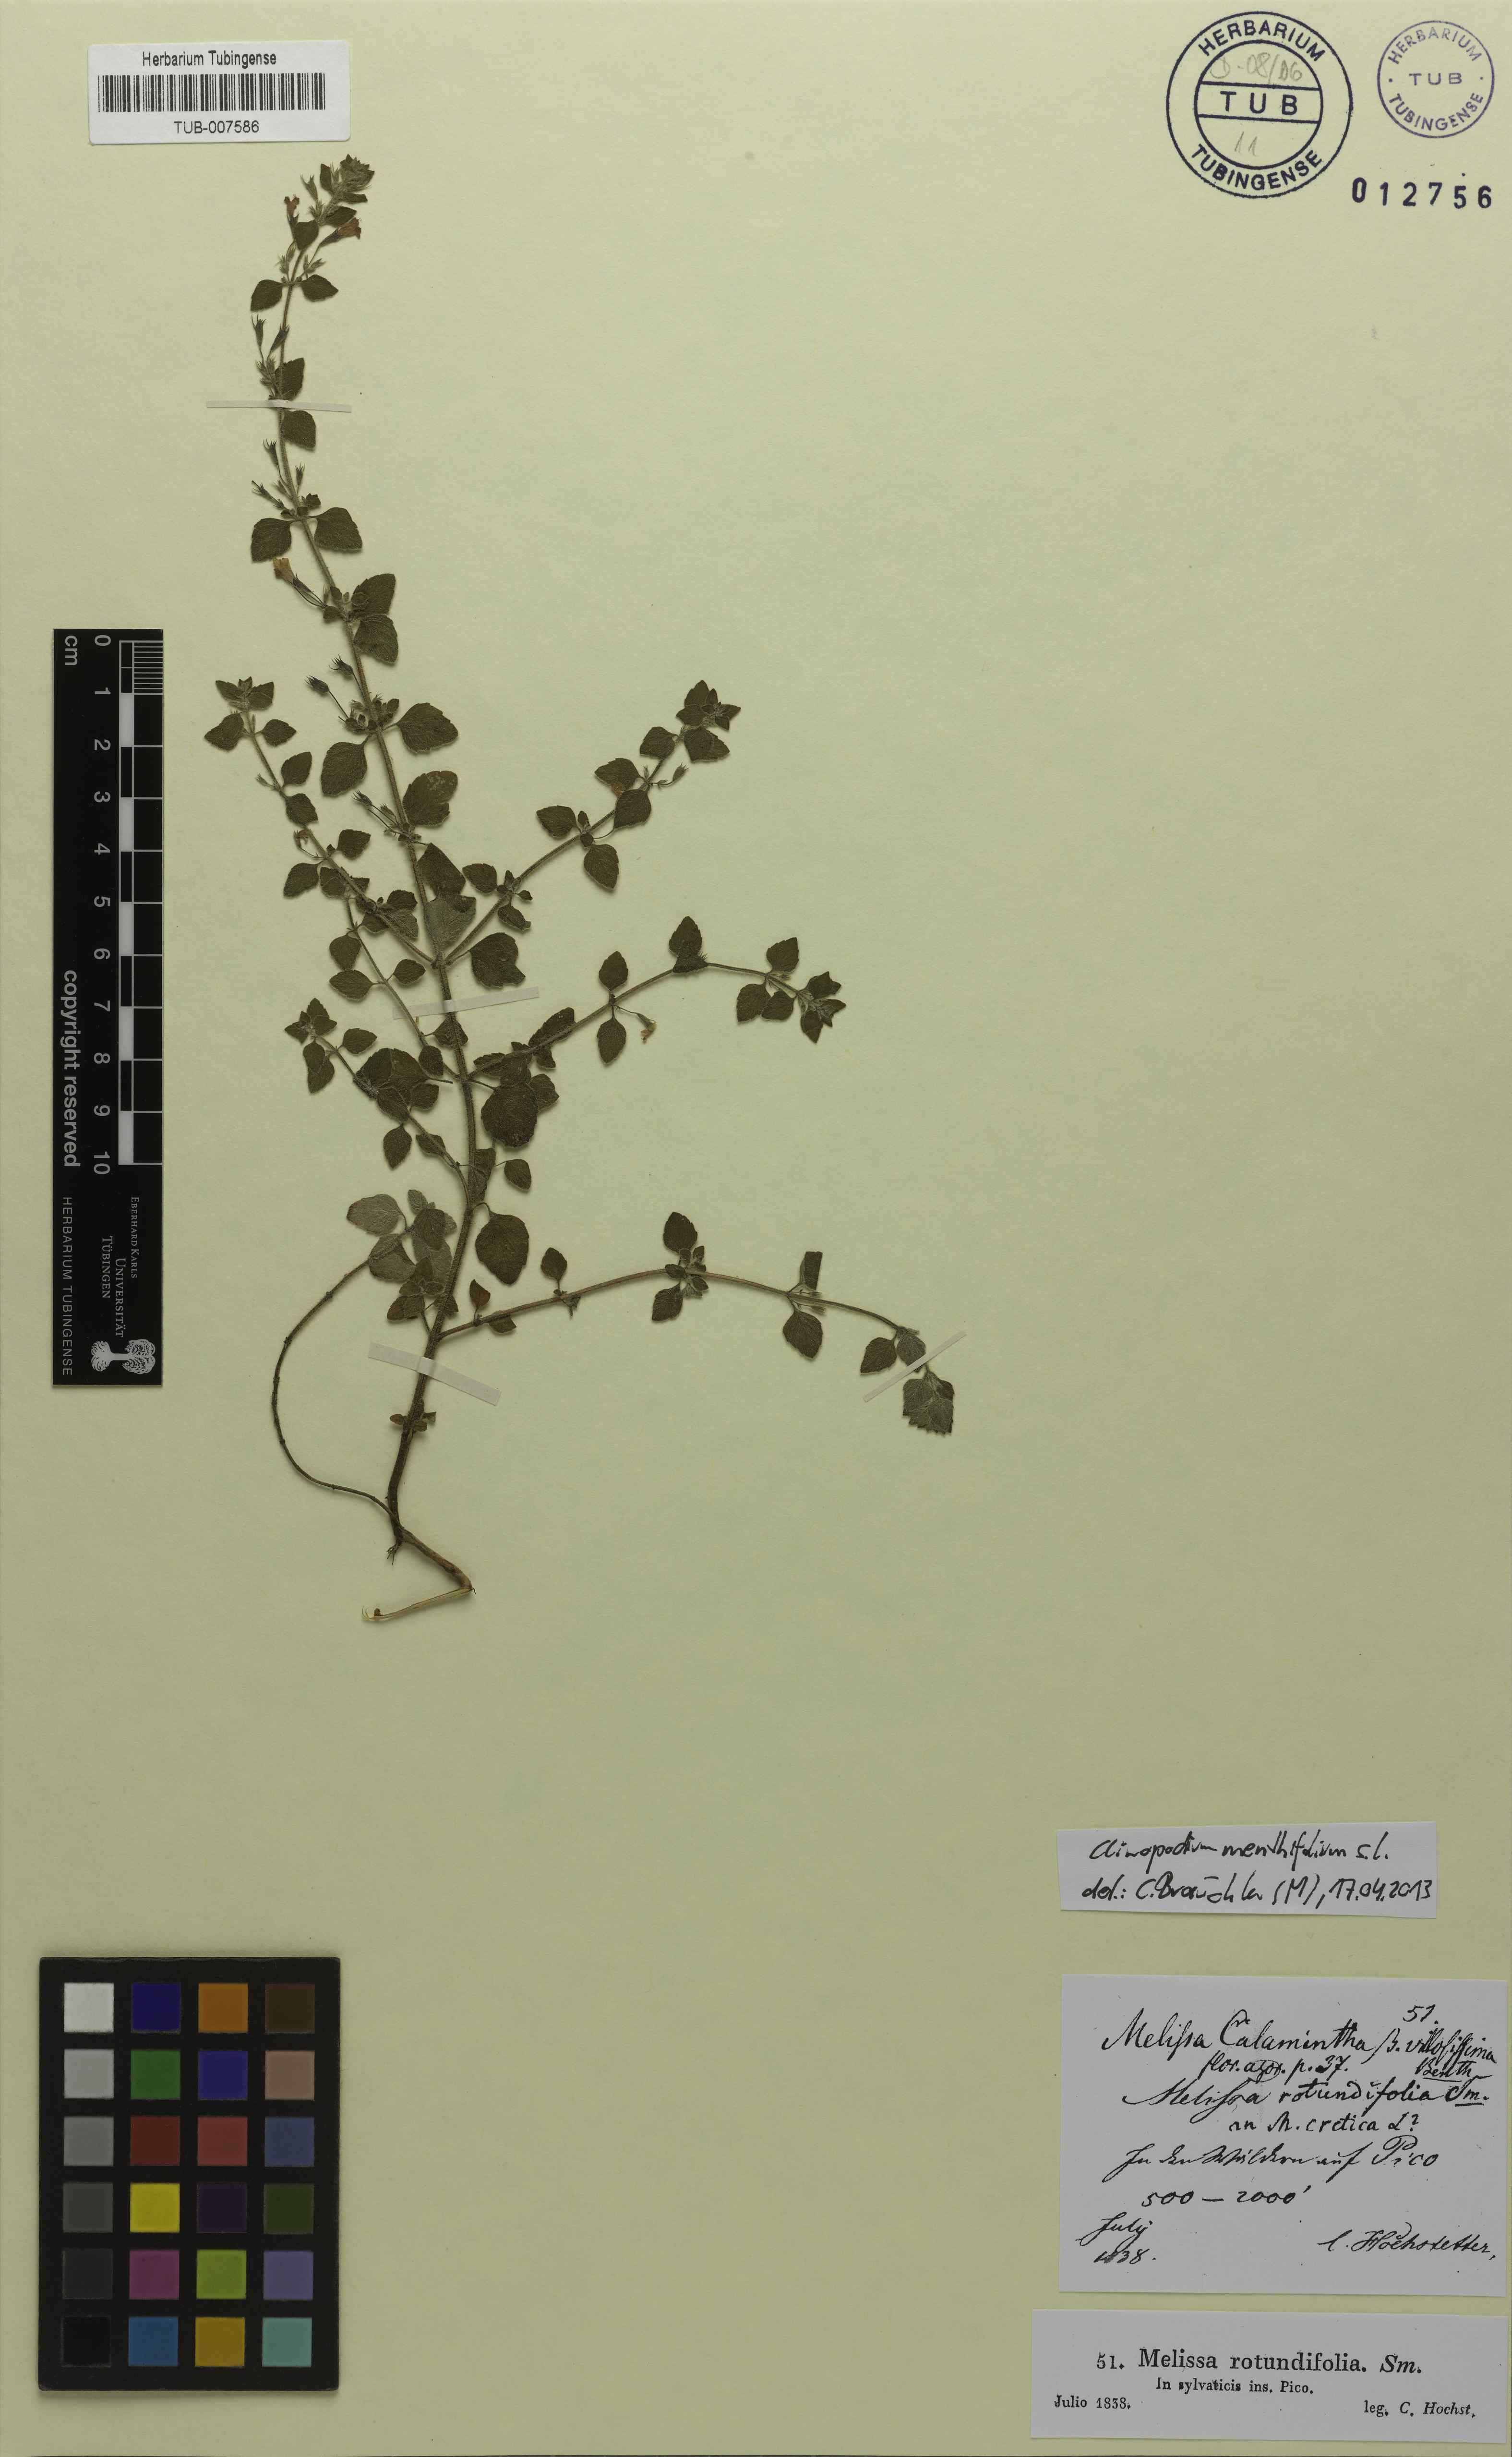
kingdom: Plantae
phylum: Tracheophyta
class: Magnoliopsida
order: Lamiales
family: Lamiaceae
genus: Clinopodium
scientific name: Clinopodium menthifolium
